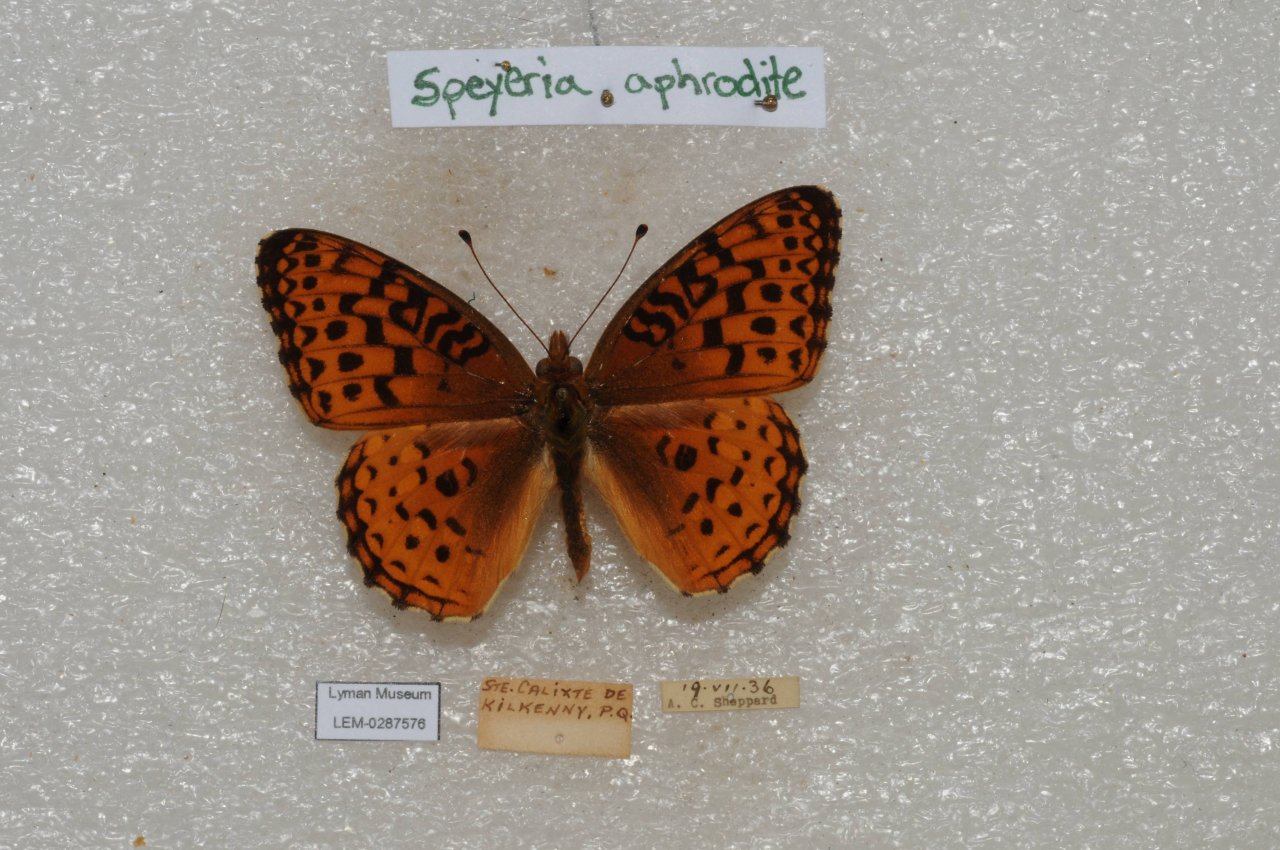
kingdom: Animalia
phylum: Arthropoda
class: Insecta
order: Lepidoptera
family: Nymphalidae
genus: Speyeria
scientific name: Speyeria aphrodite
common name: Aphrodite Fritillary
